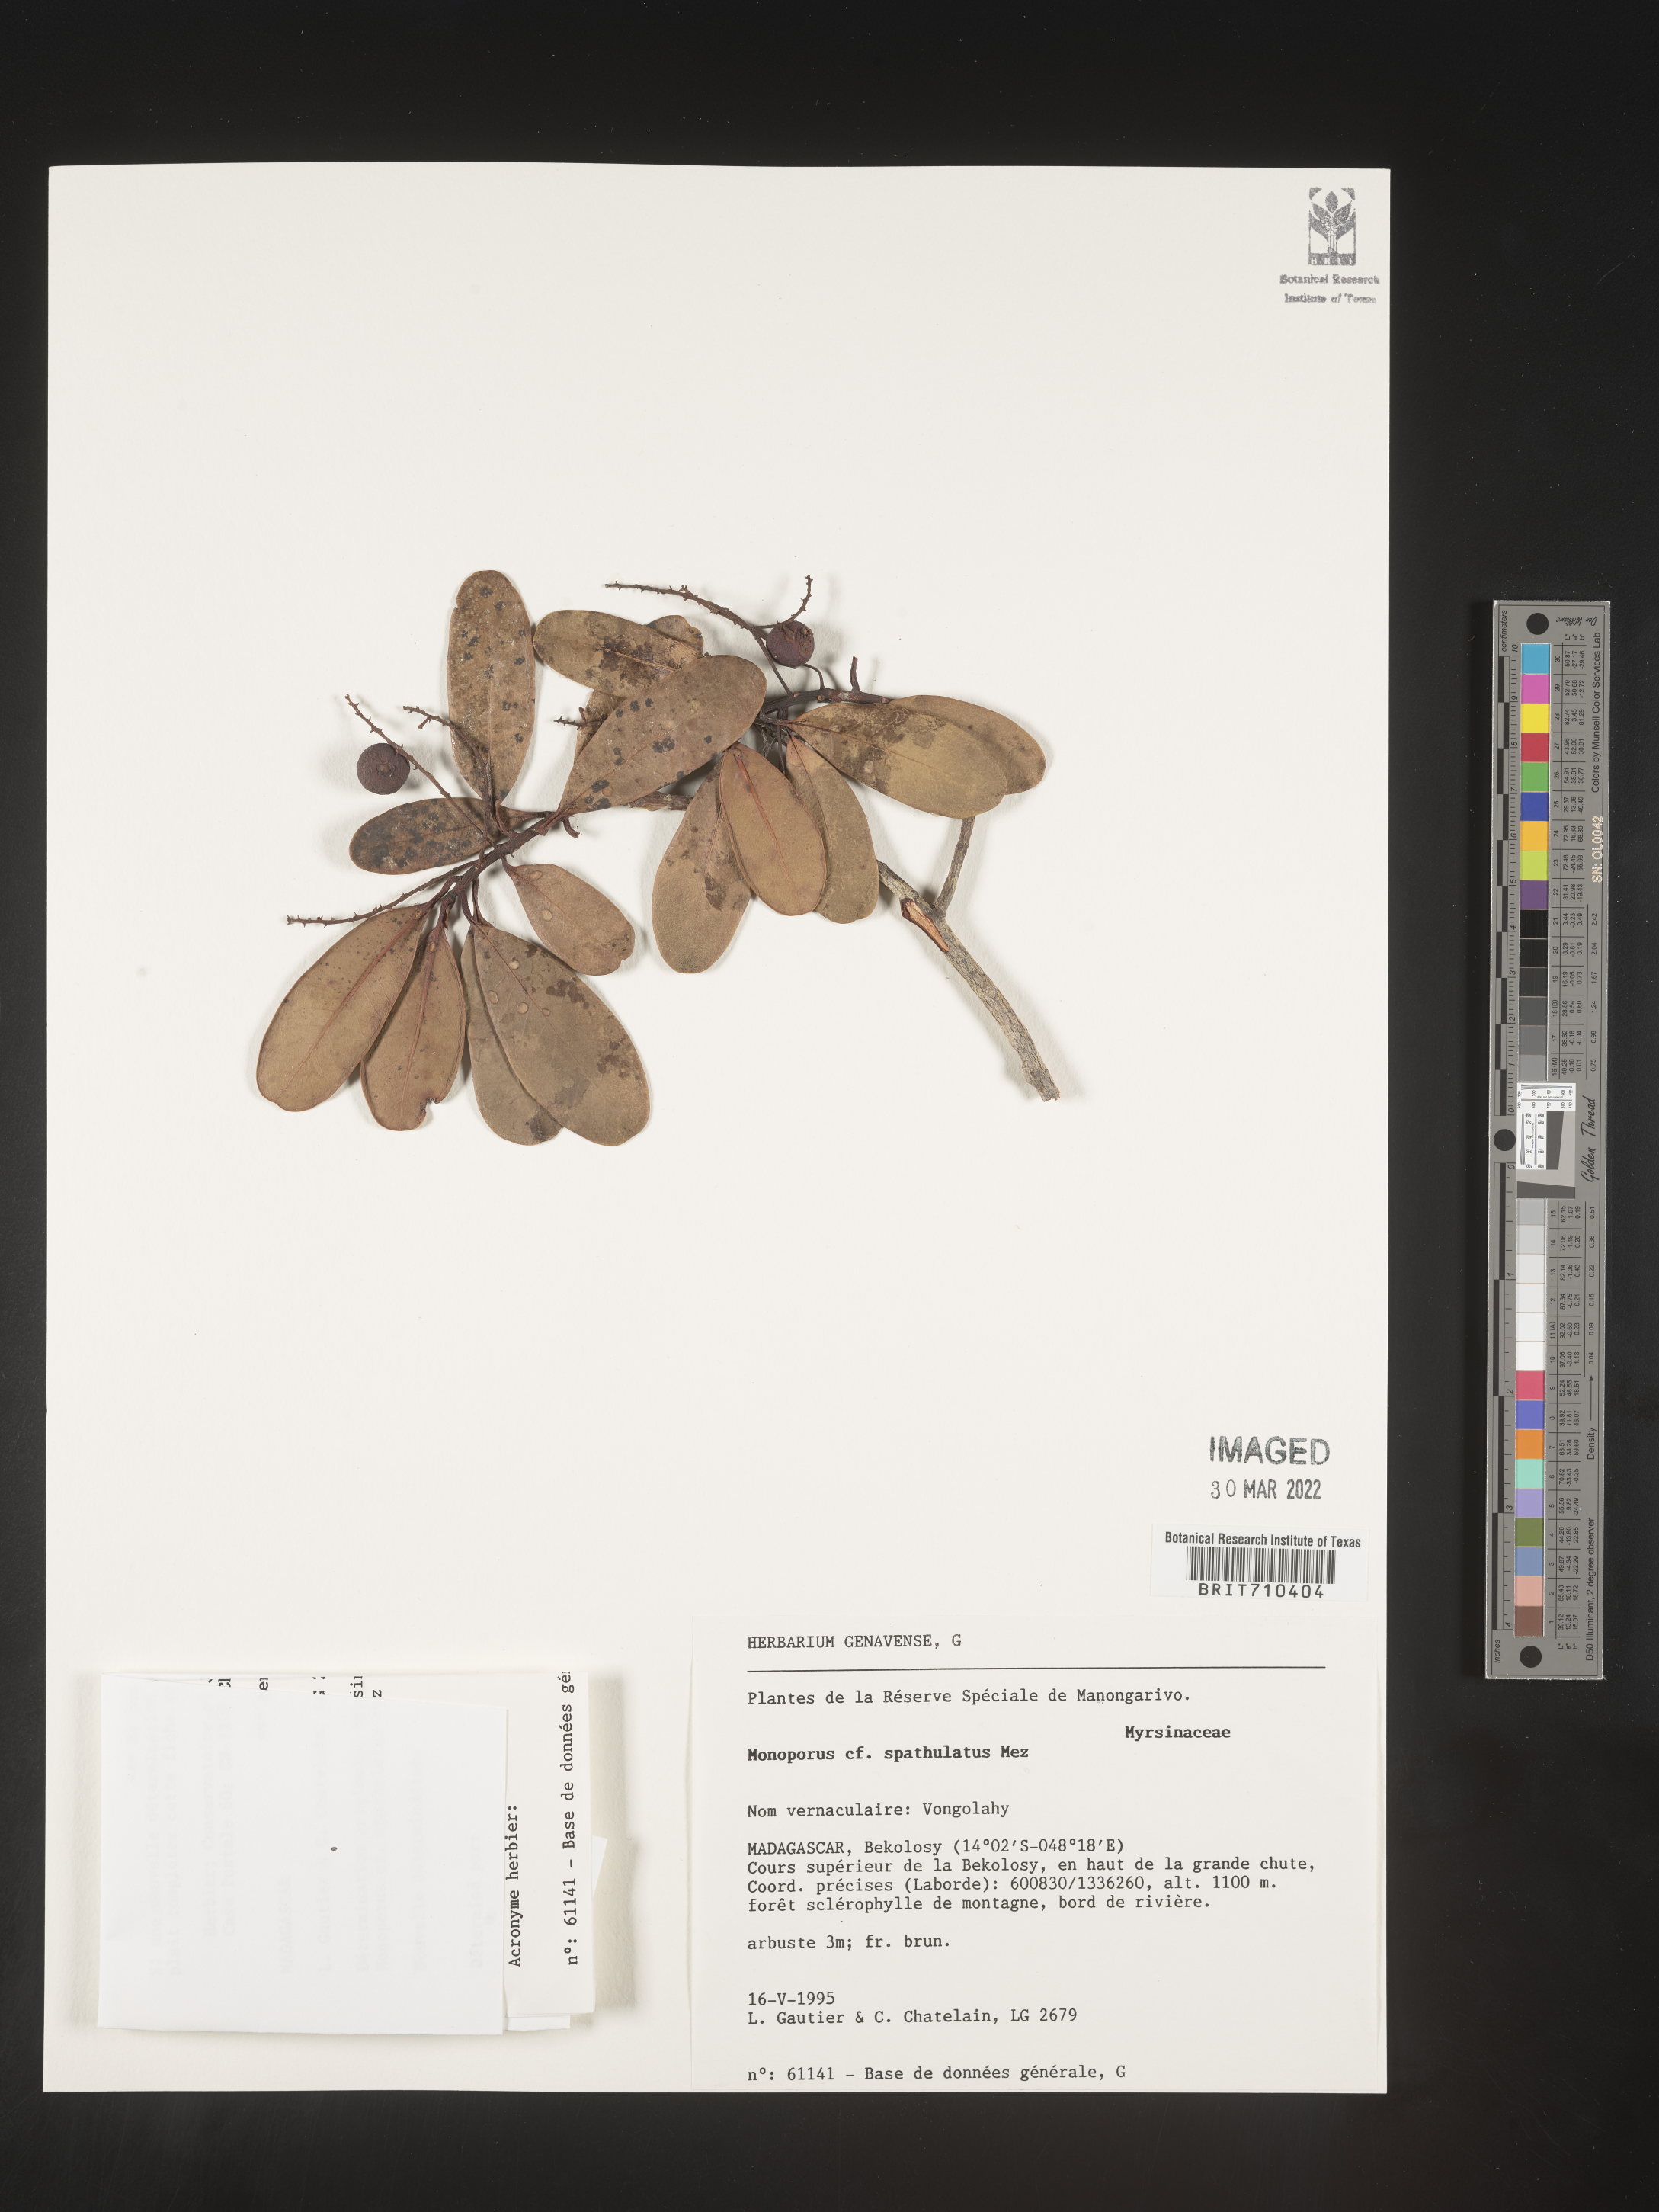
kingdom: Plantae
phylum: Tracheophyta
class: Magnoliopsida
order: Ericales
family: Primulaceae
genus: Monoporus
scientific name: Monoporus
